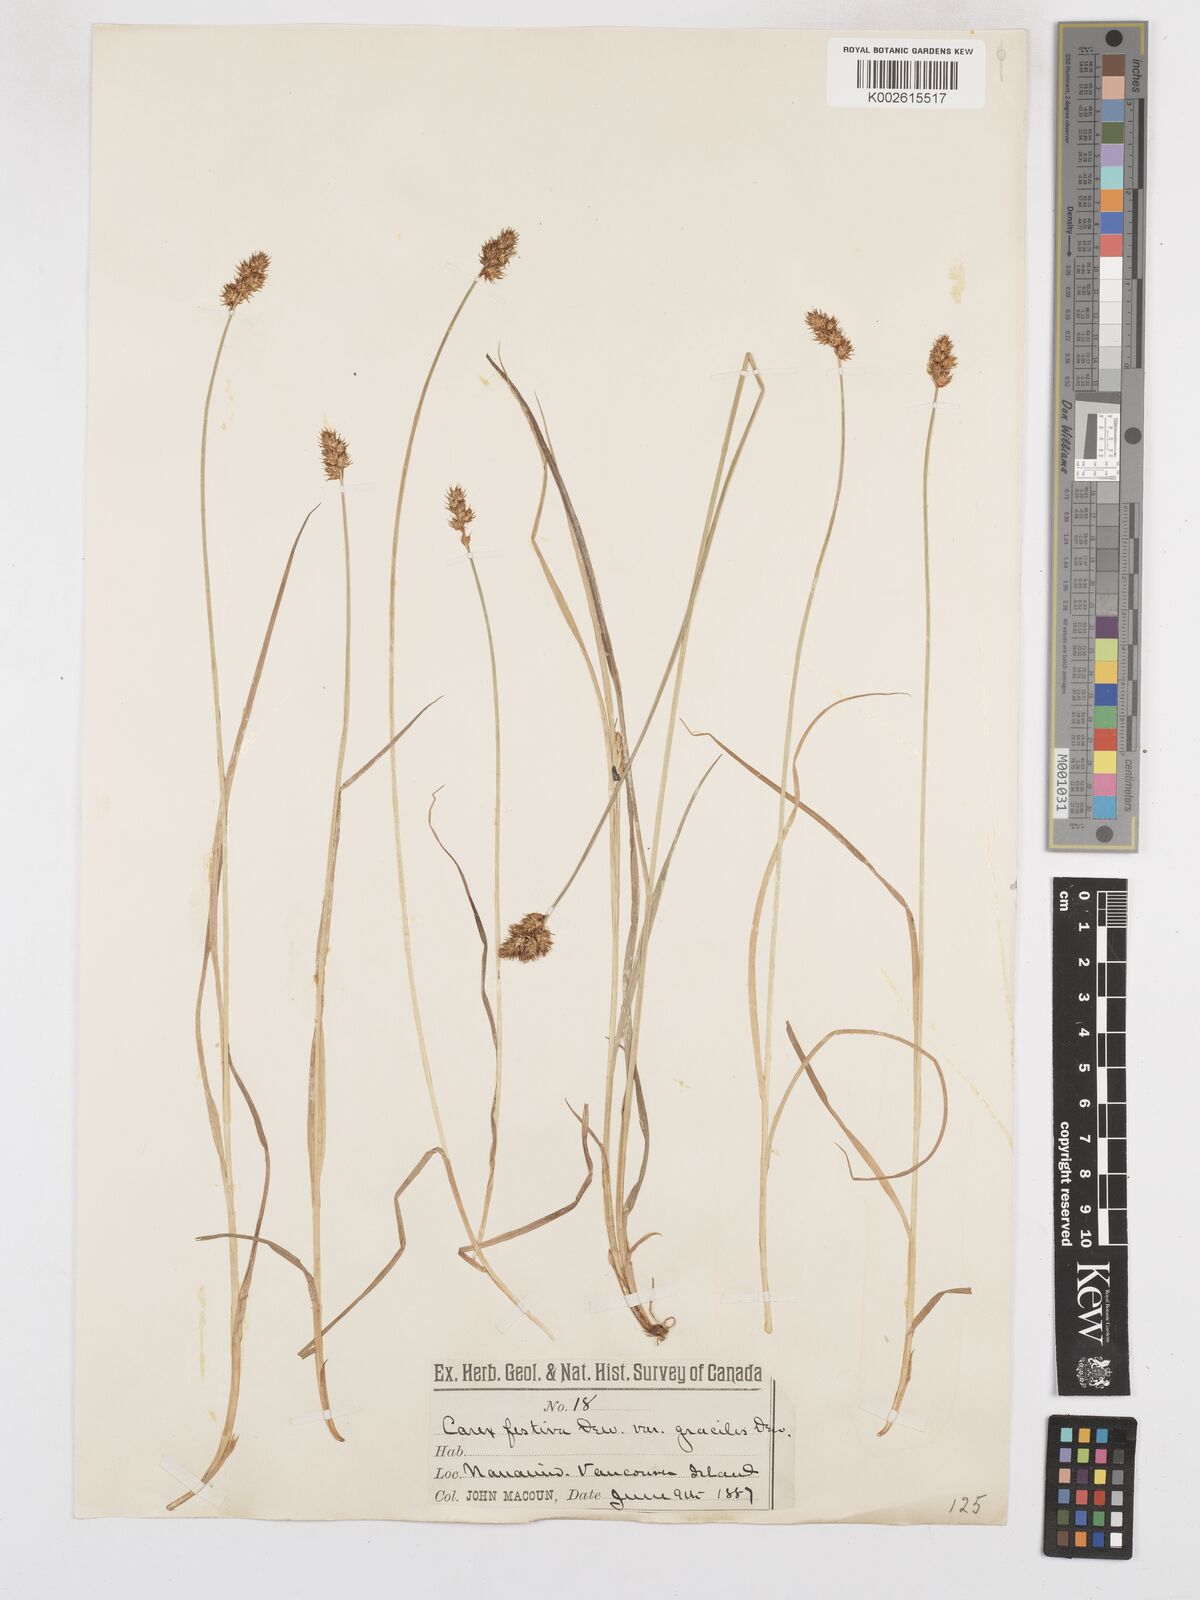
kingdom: Plantae
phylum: Tracheophyta
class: Liliopsida
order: Poales
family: Cyperaceae
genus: Carex
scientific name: Carex macloviana
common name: Falkland island sedge
